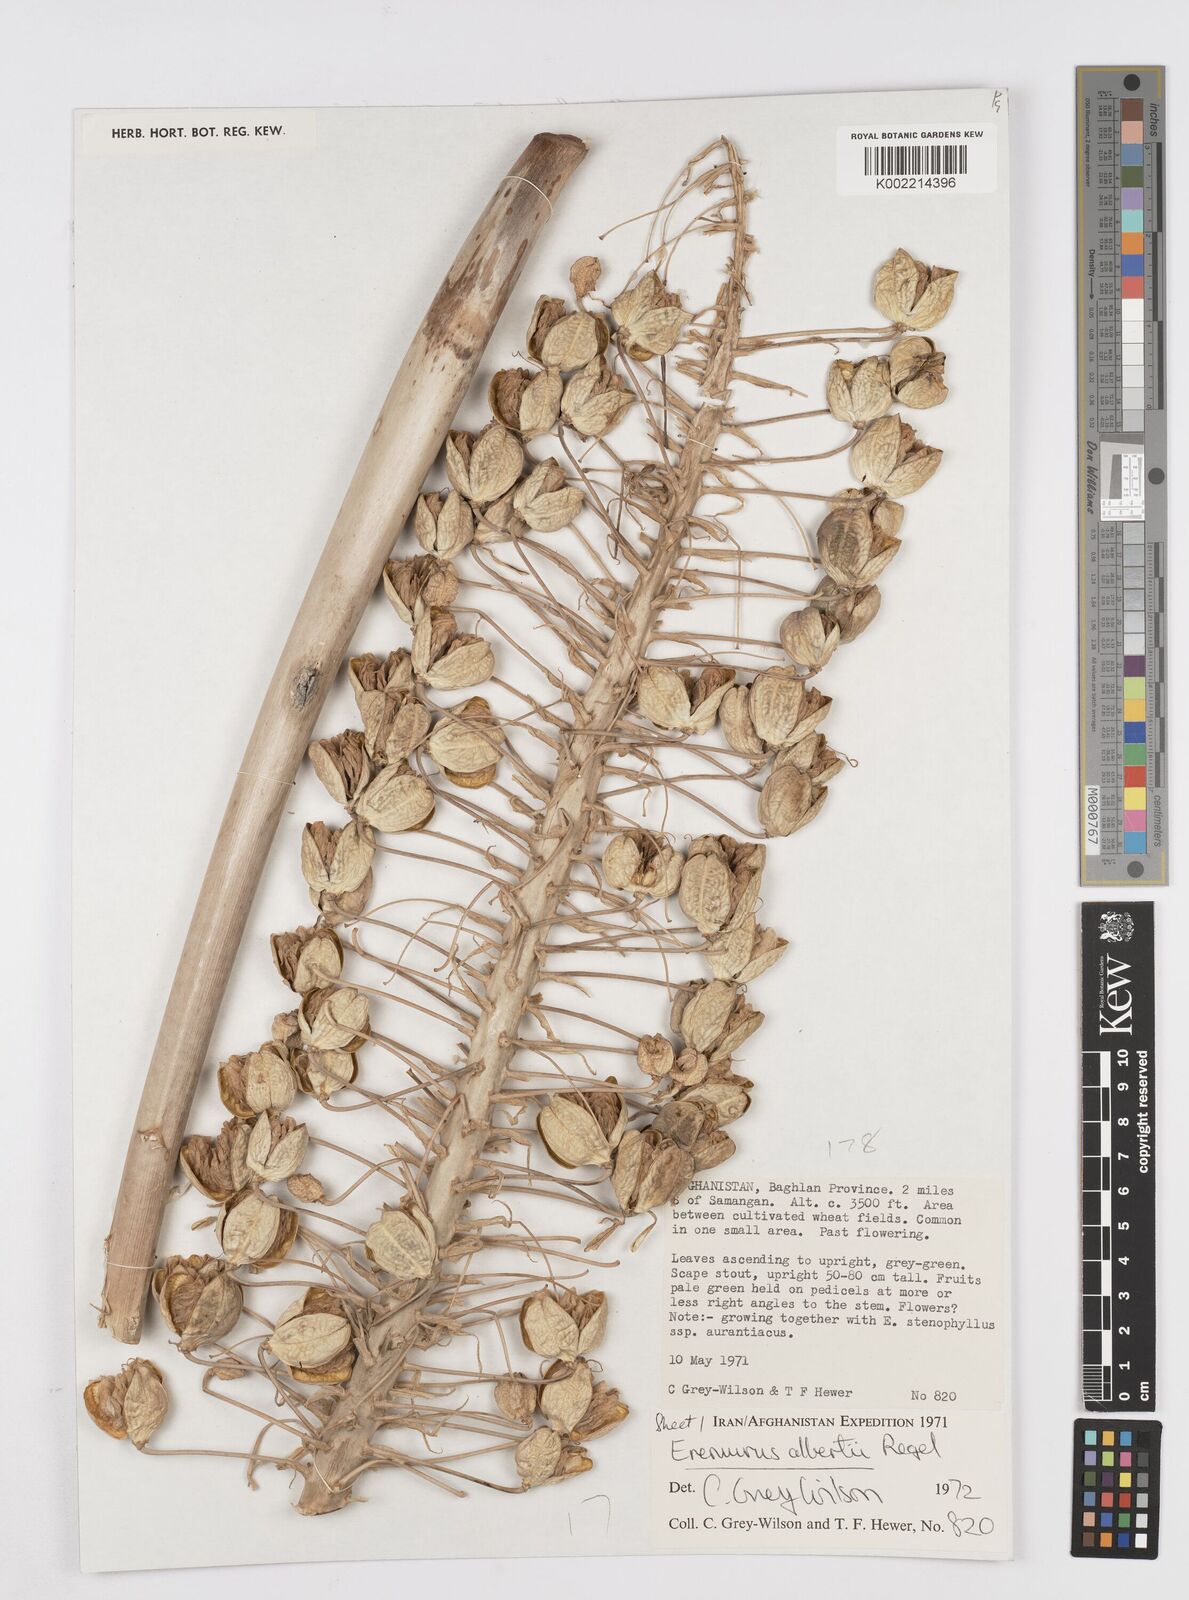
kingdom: Plantae
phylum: Tracheophyta
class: Liliopsida
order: Asparagales
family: Asphodelaceae
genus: Eremurus
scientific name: Eremurus alberti
